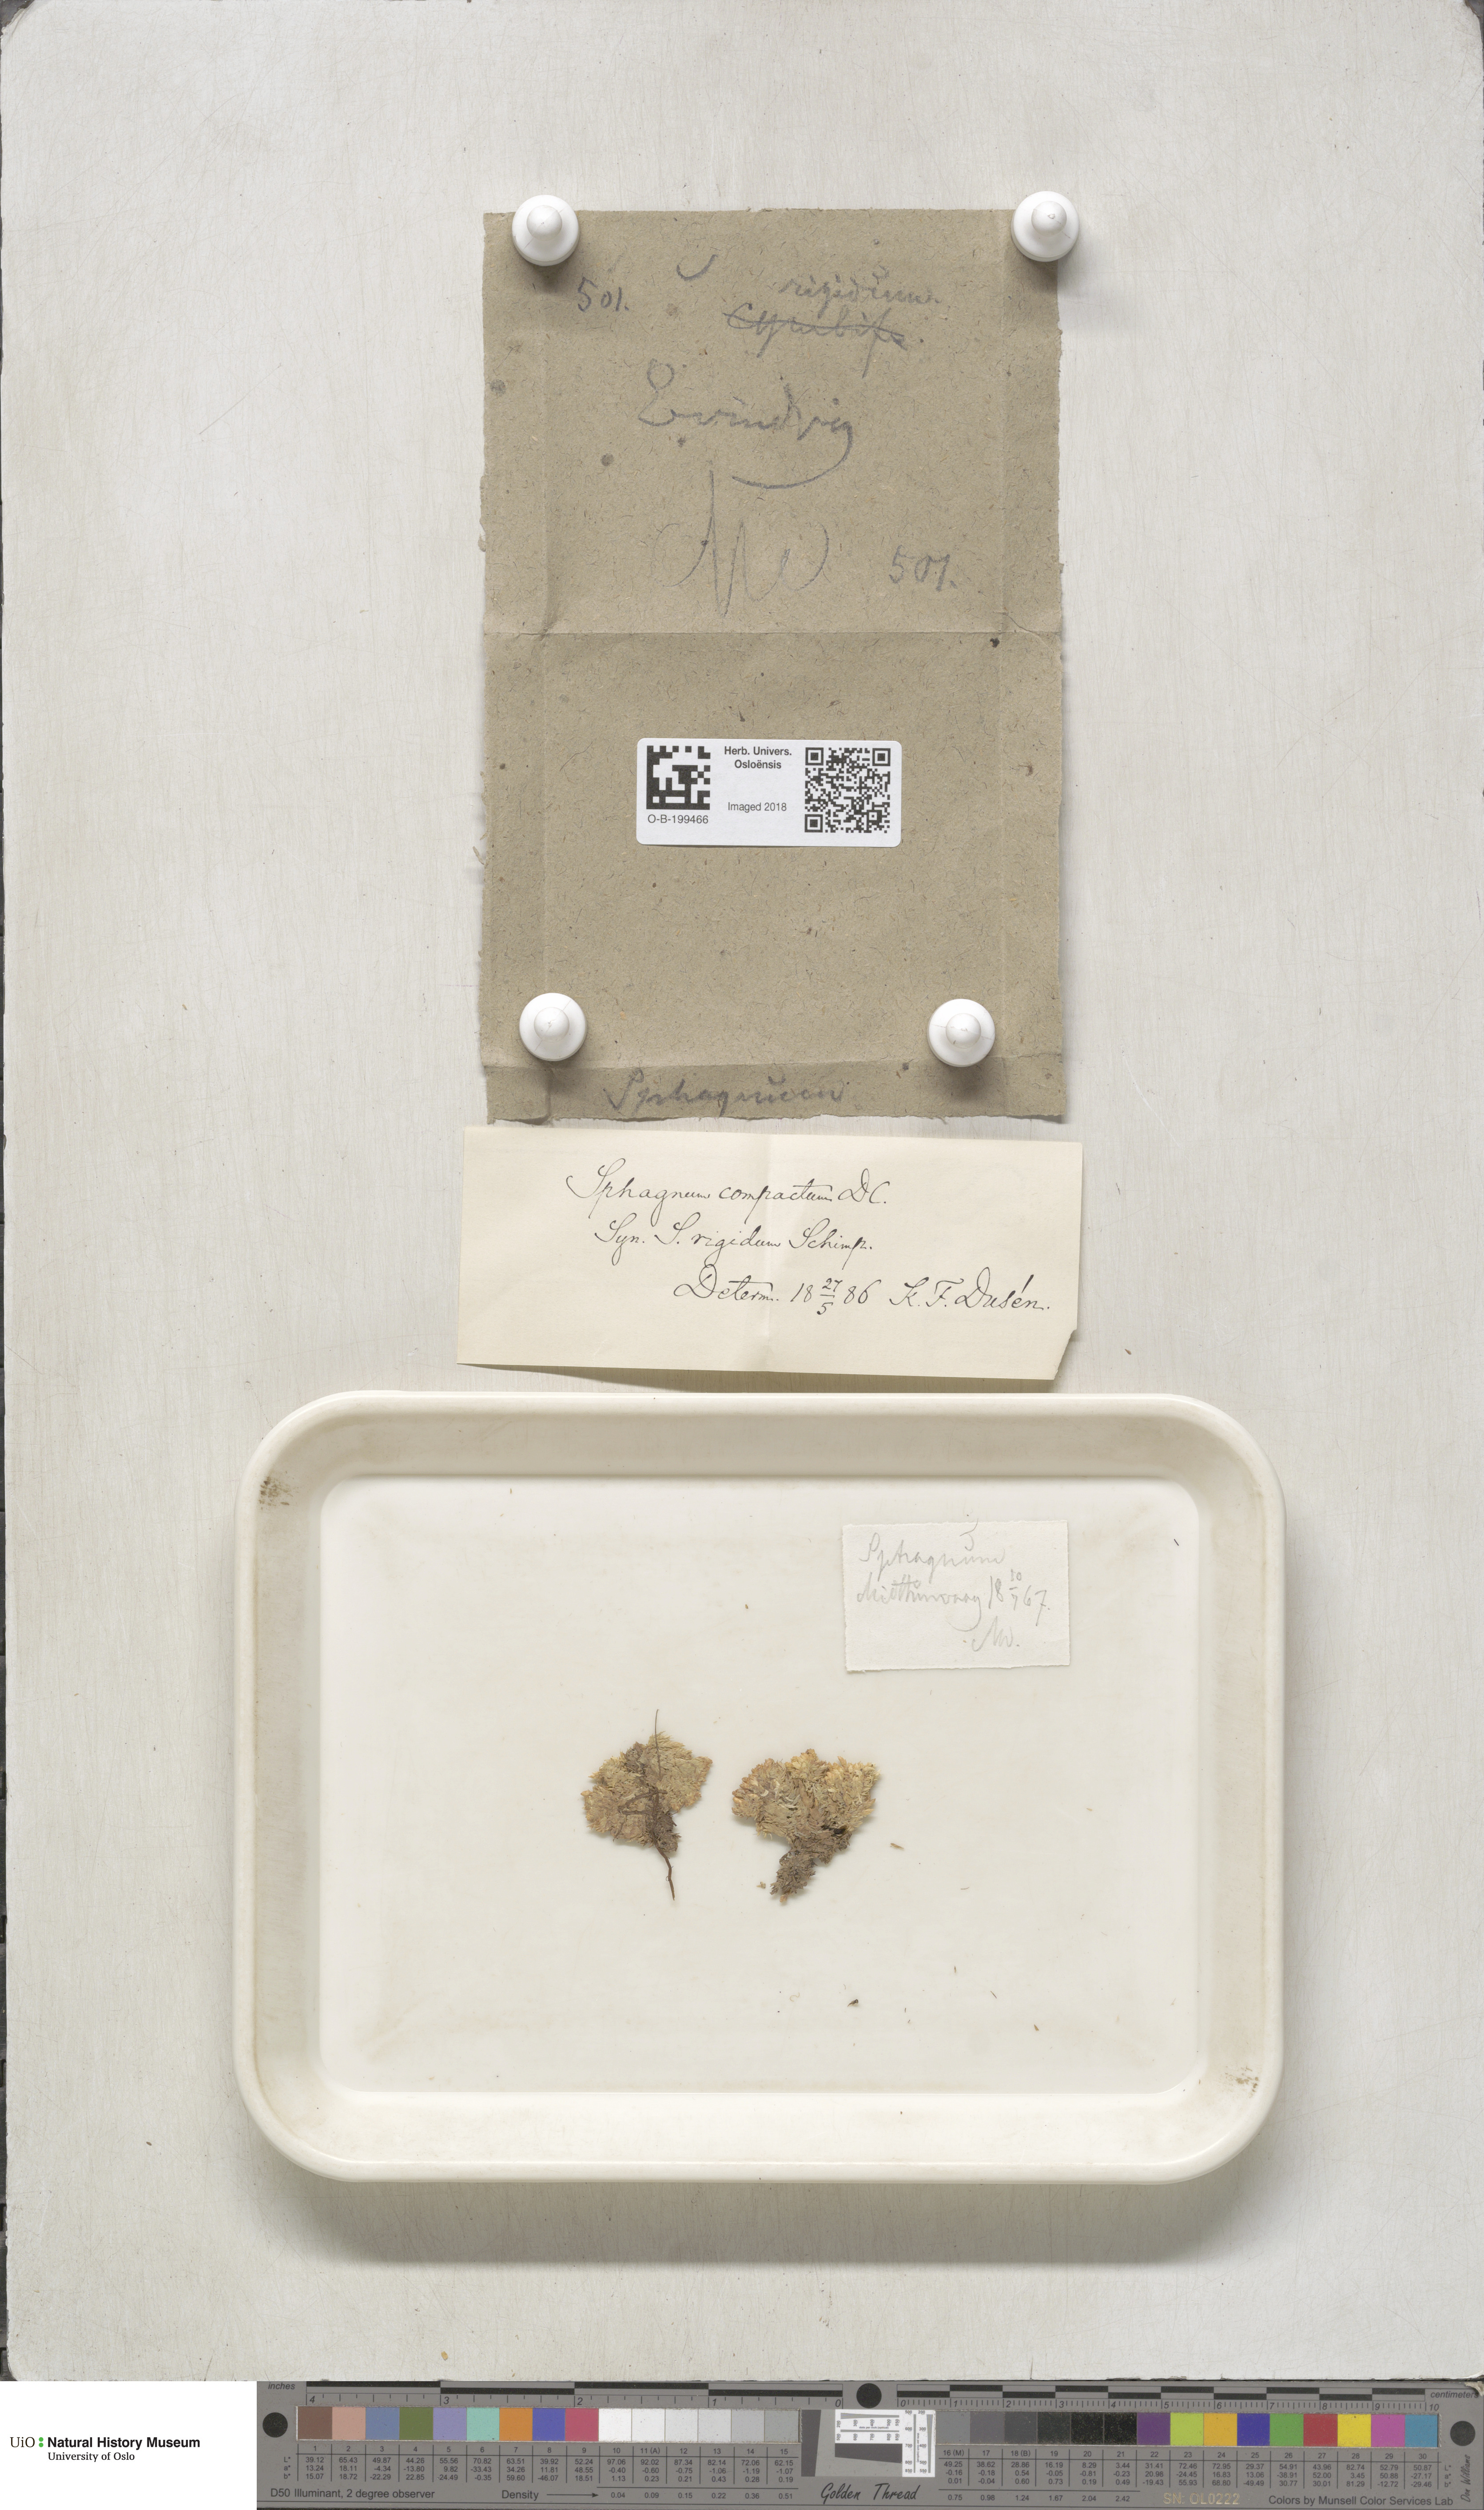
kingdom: Plantae
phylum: Bryophyta
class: Sphagnopsida
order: Sphagnales
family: Sphagnaceae
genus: Sphagnum
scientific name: Sphagnum compactum
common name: Compact peat moss
